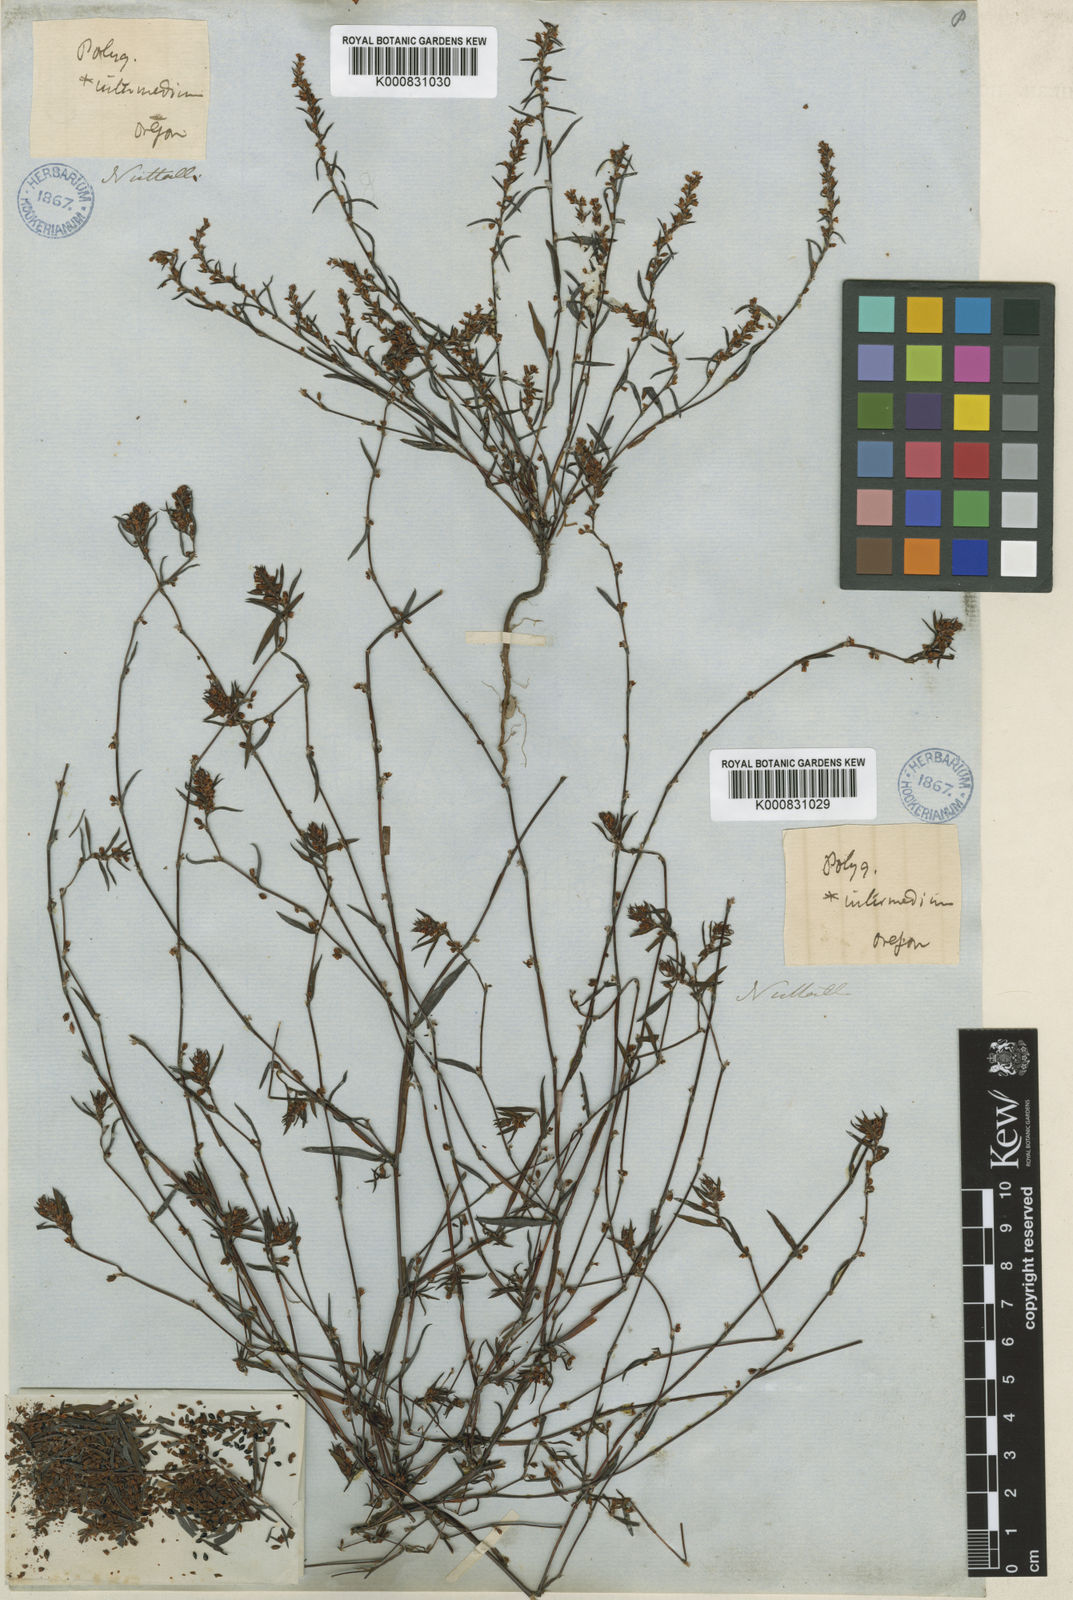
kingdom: Plantae
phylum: Tracheophyta
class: Magnoliopsida
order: Caryophyllales
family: Polygonaceae
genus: Polygonum
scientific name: Polygonum douglasii
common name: Douglas' knotweed
